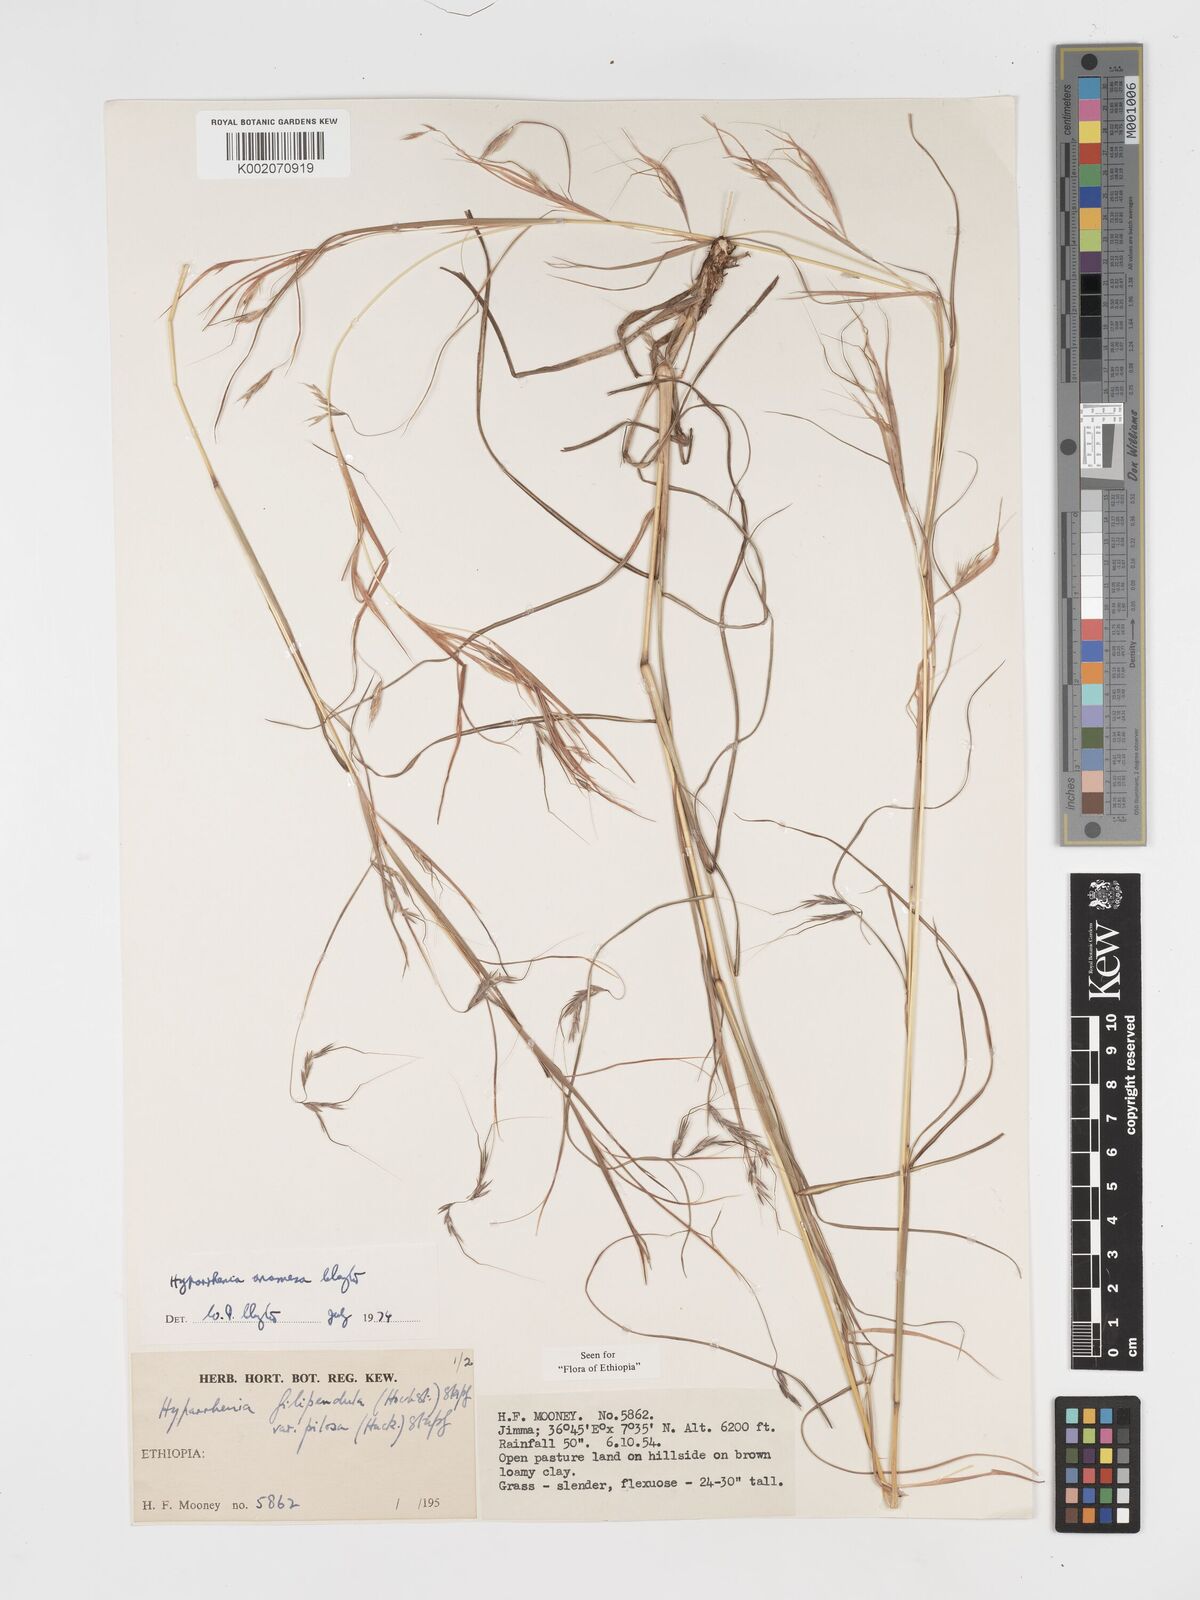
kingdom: Plantae
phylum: Tracheophyta
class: Liliopsida
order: Poales
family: Poaceae
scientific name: Poaceae
